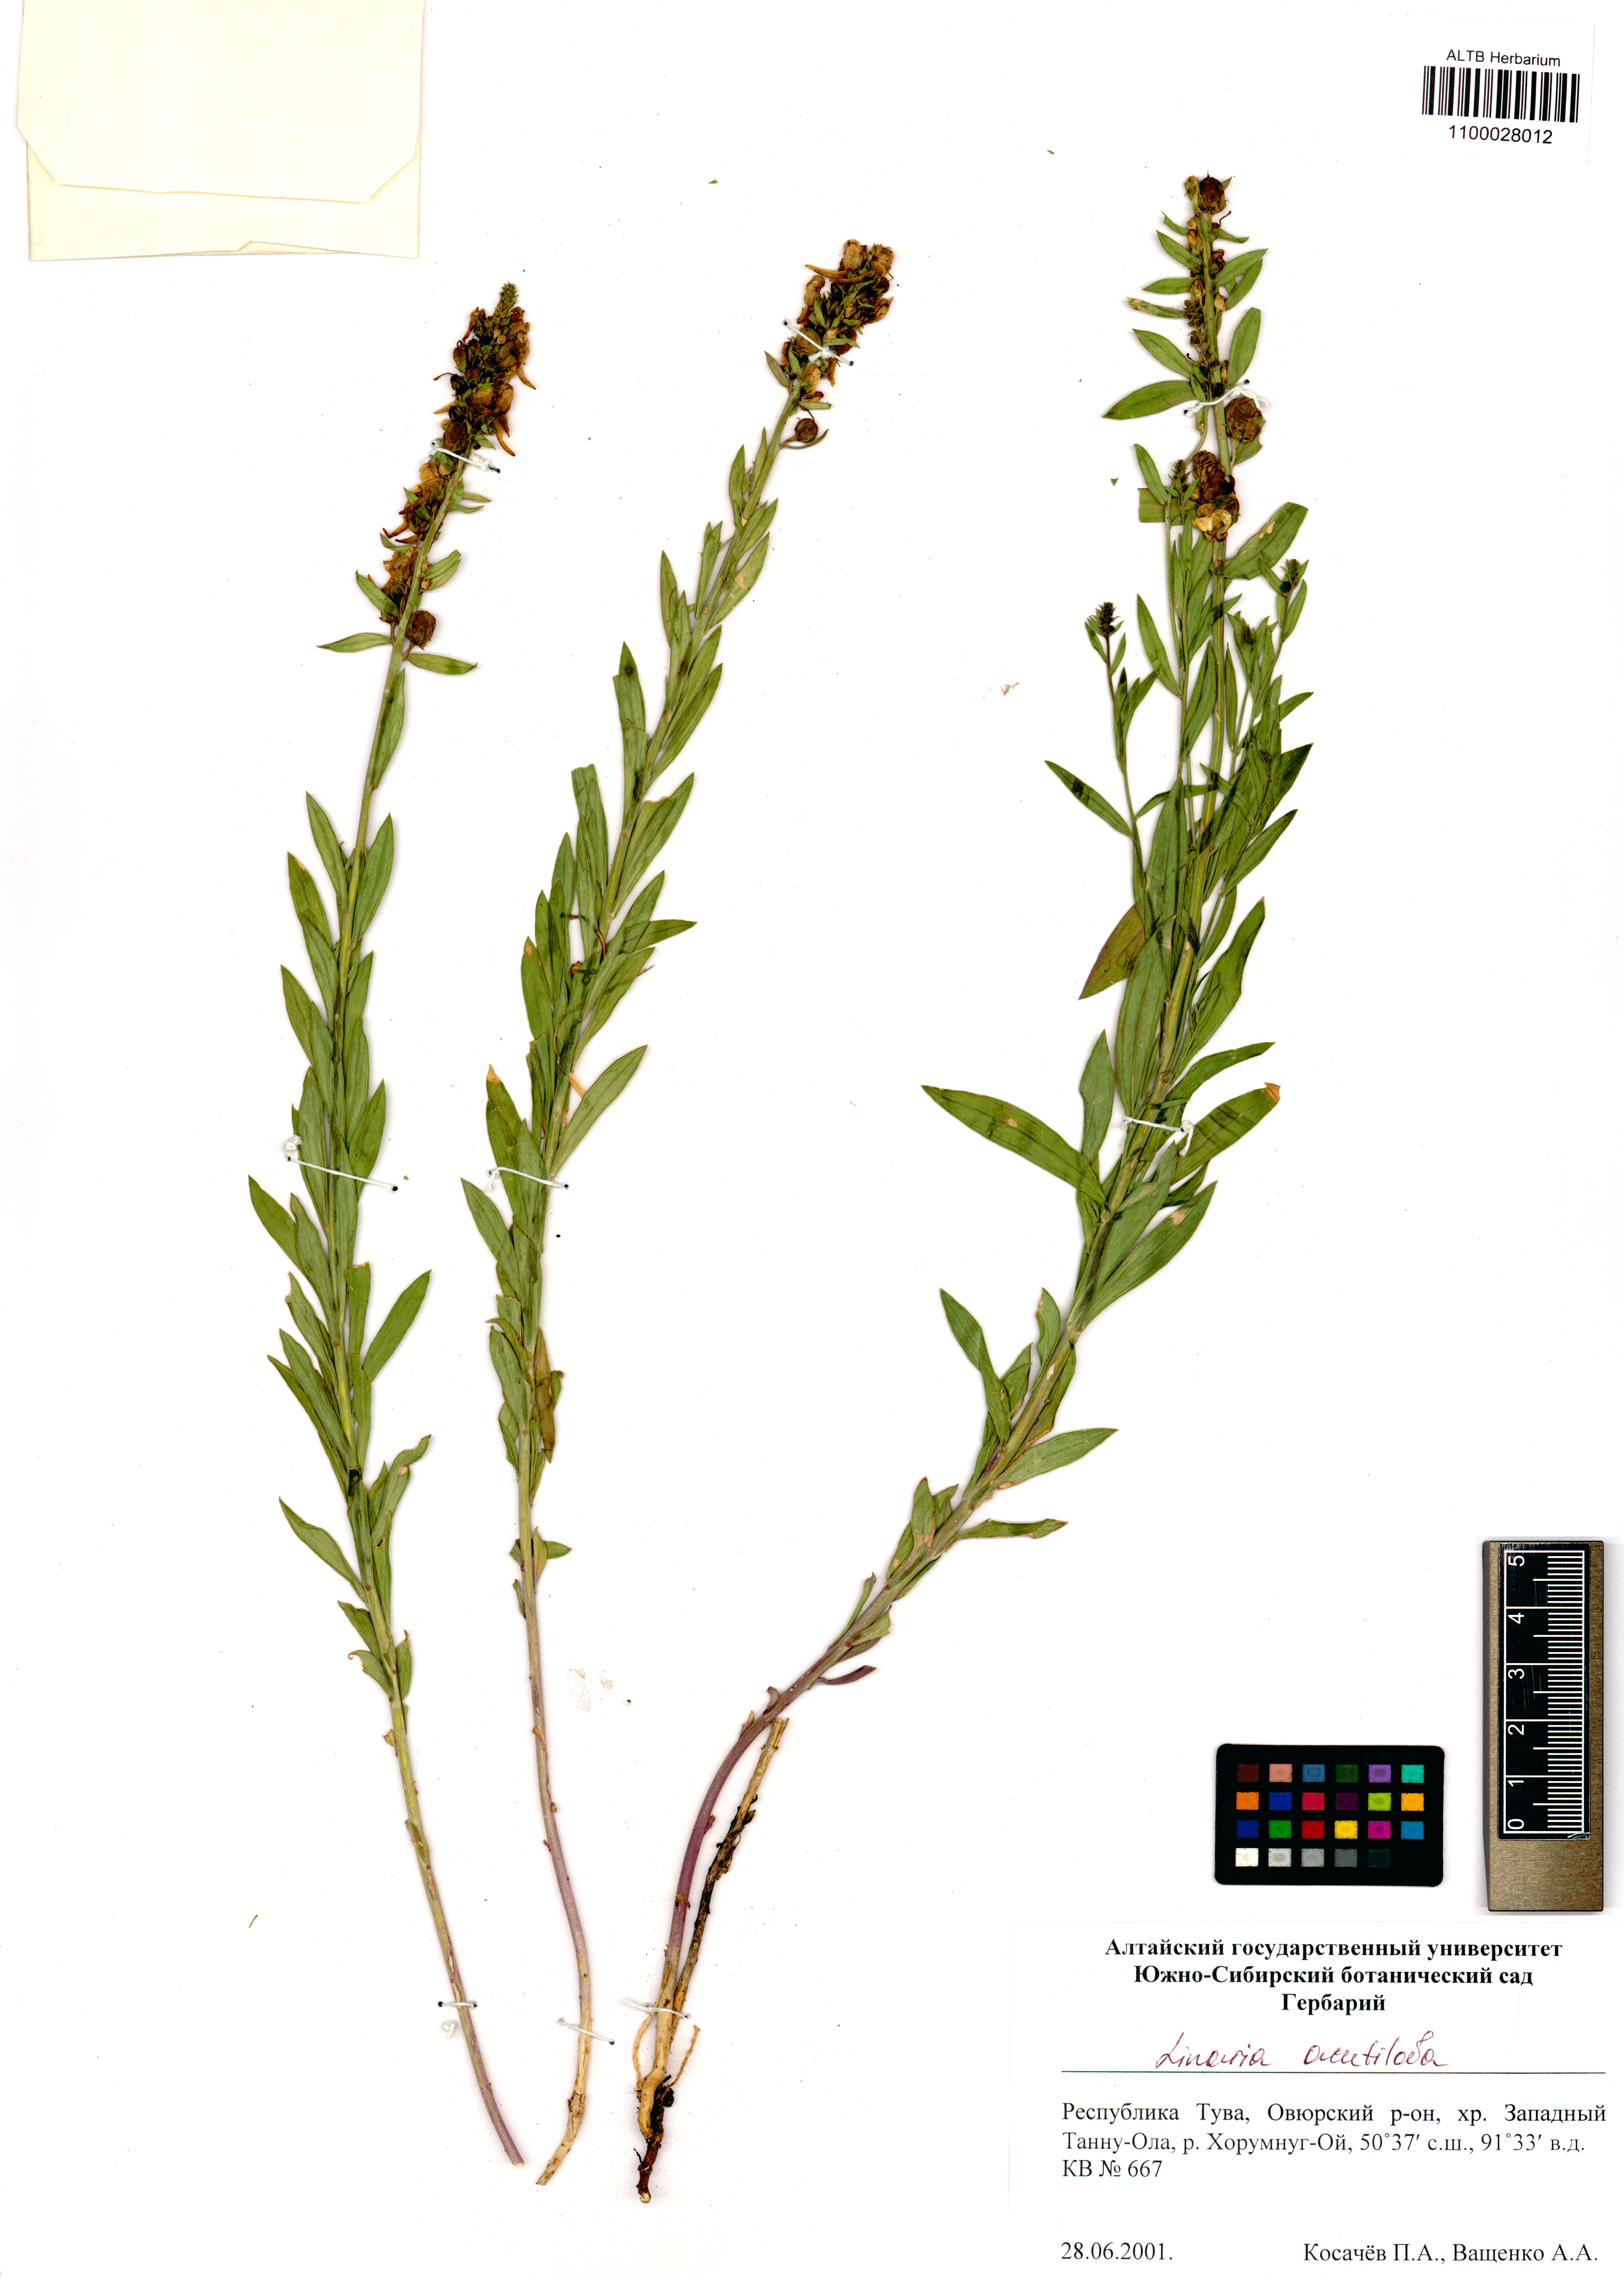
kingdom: Plantae
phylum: Tracheophyta
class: Magnoliopsida
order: Lamiales
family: Plantaginaceae
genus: Linaria
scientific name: Linaria acutiloba
